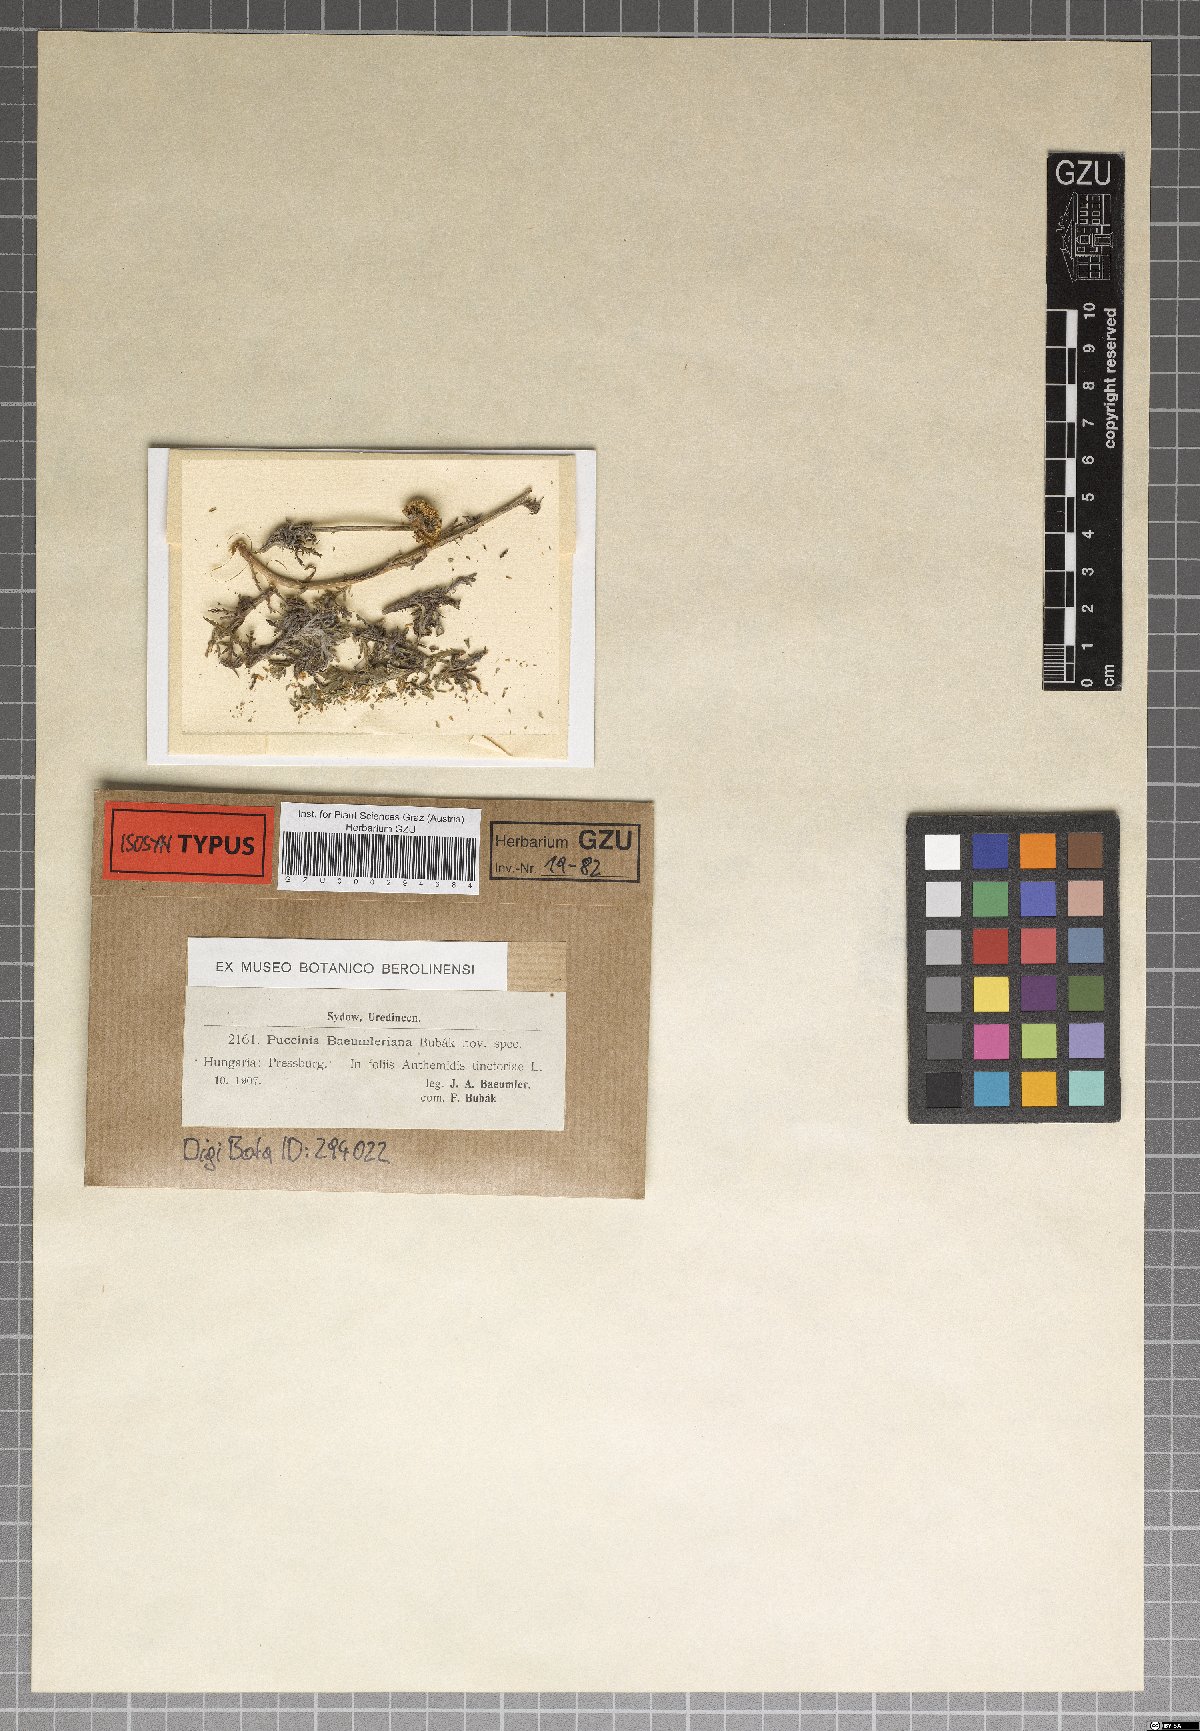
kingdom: Fungi
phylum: Basidiomycota
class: Pucciniomycetes
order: Pucciniales
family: Pucciniaceae
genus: Puccinia
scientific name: Puccinia baeumleriana
